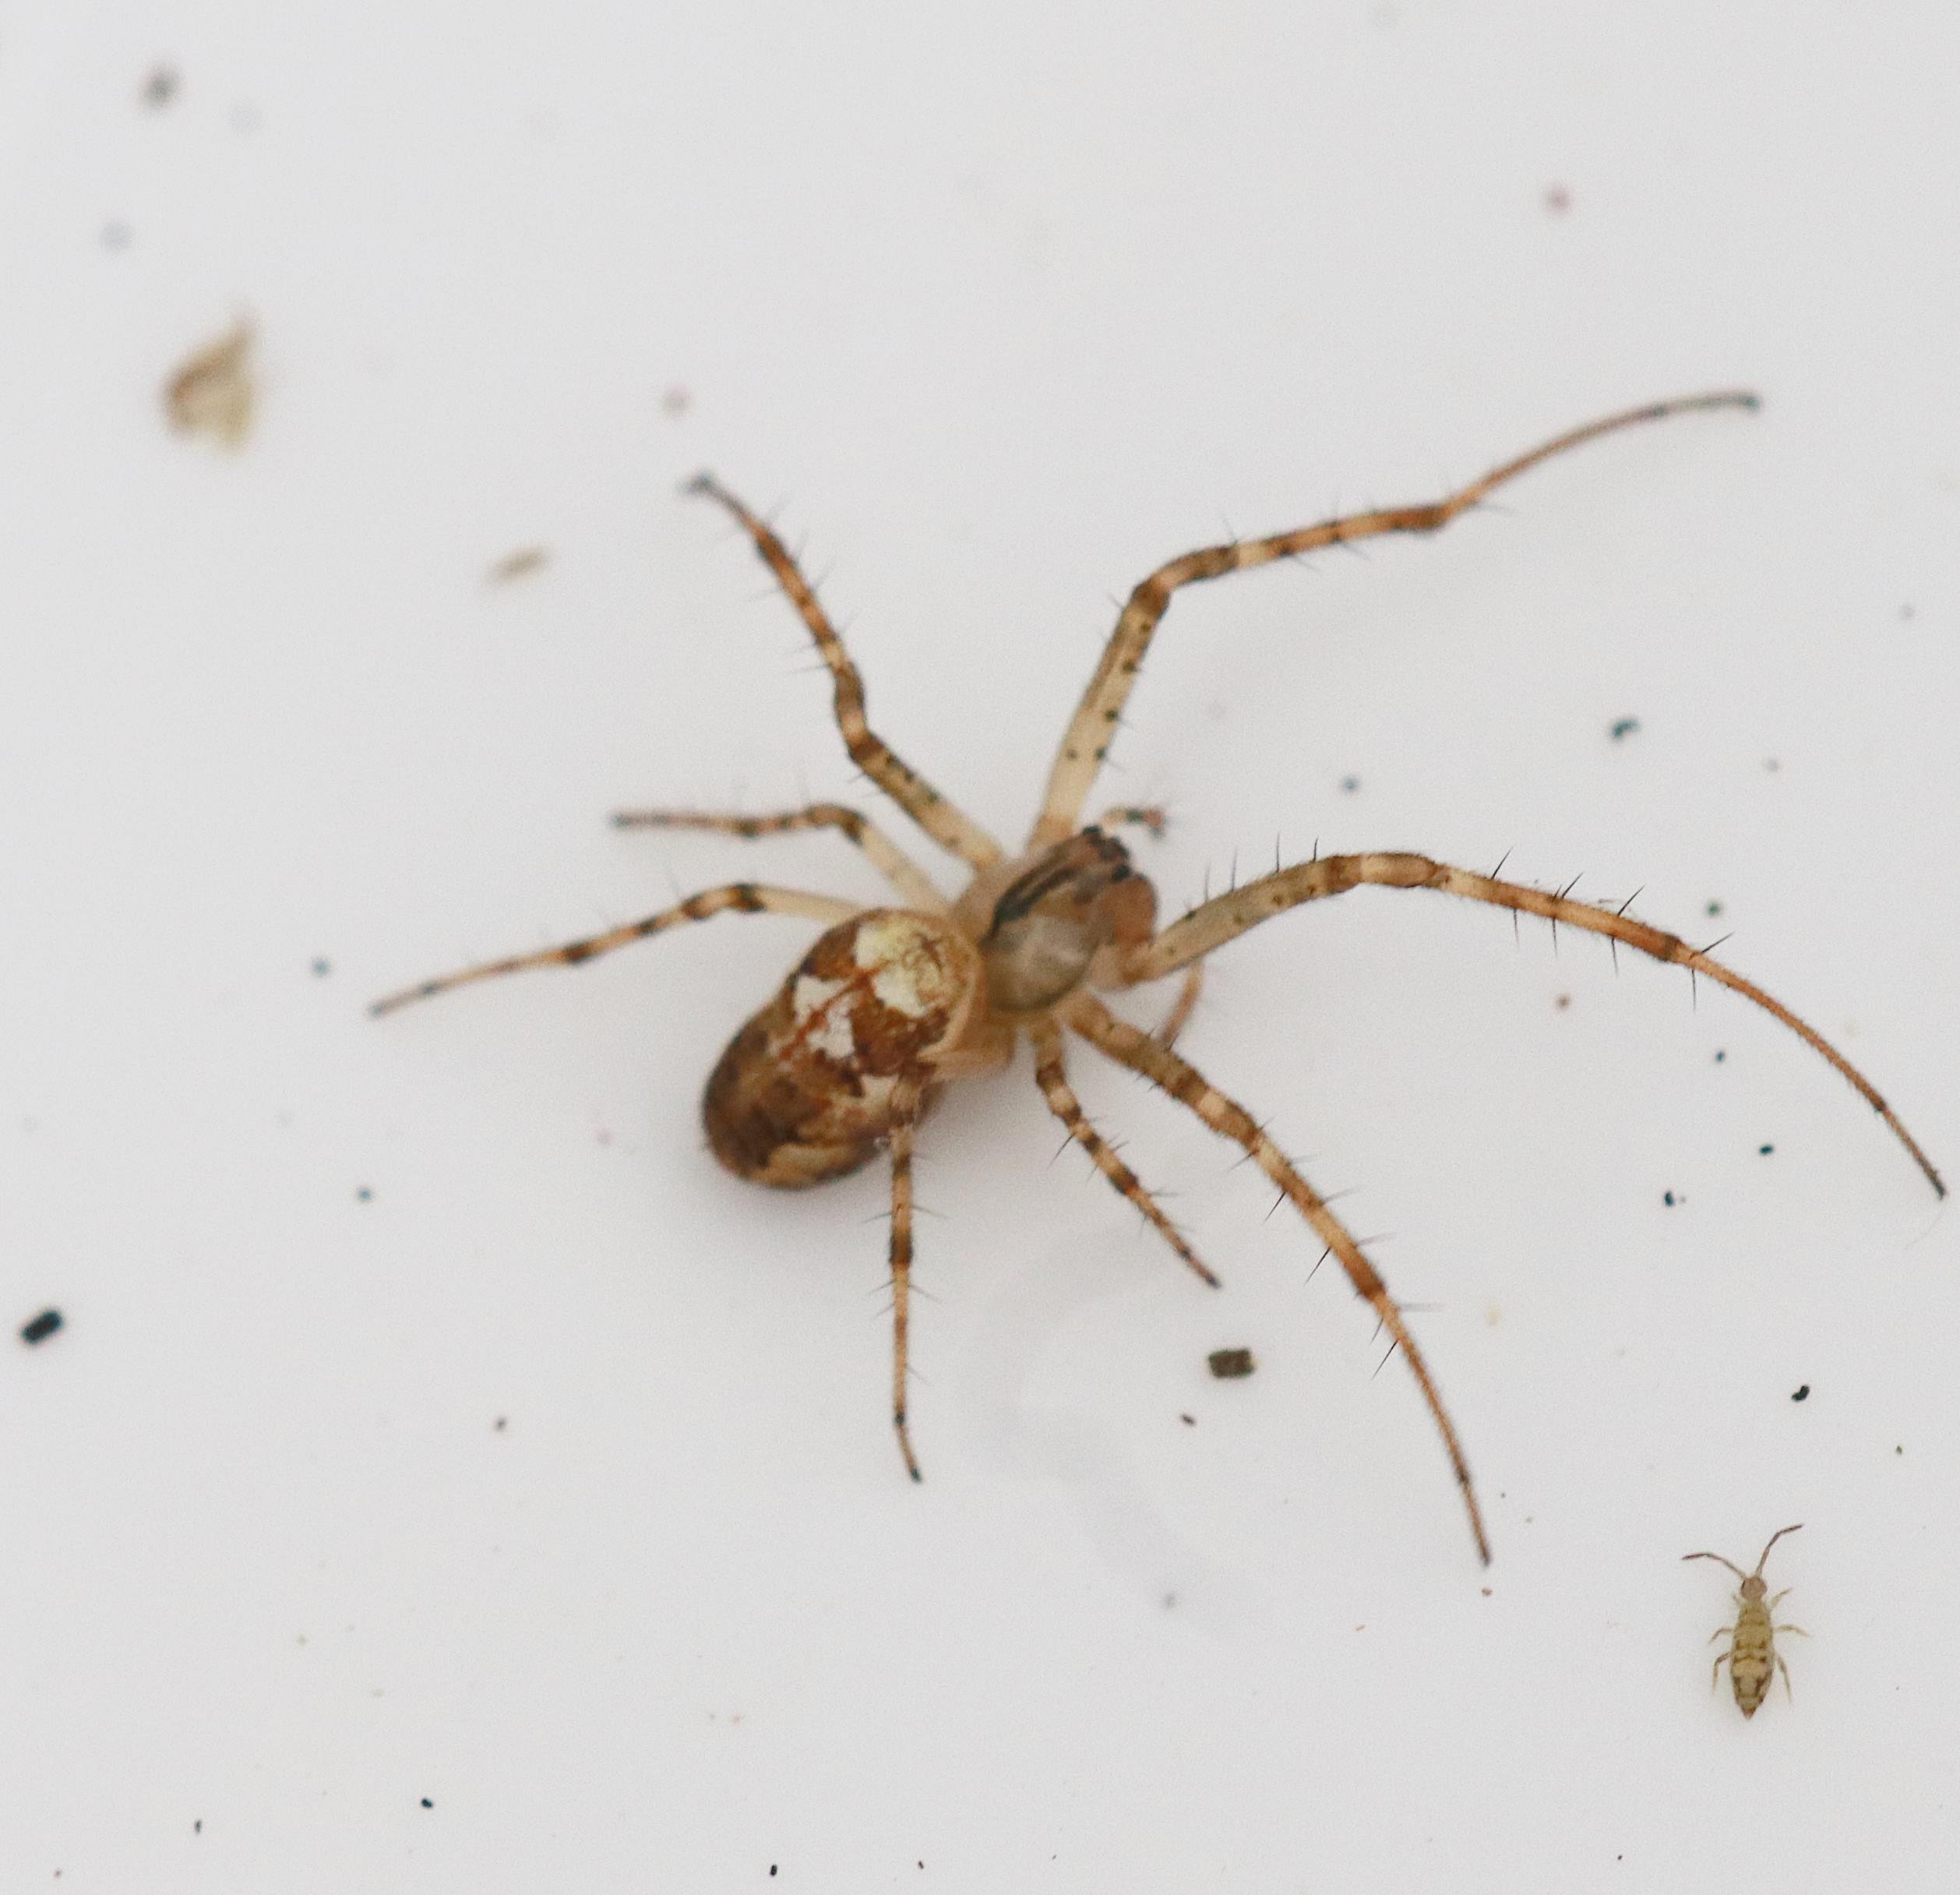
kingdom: Animalia
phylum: Arthropoda
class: Arachnida
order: Araneae
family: Tetragnathidae
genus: Metellina
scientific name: Metellina
